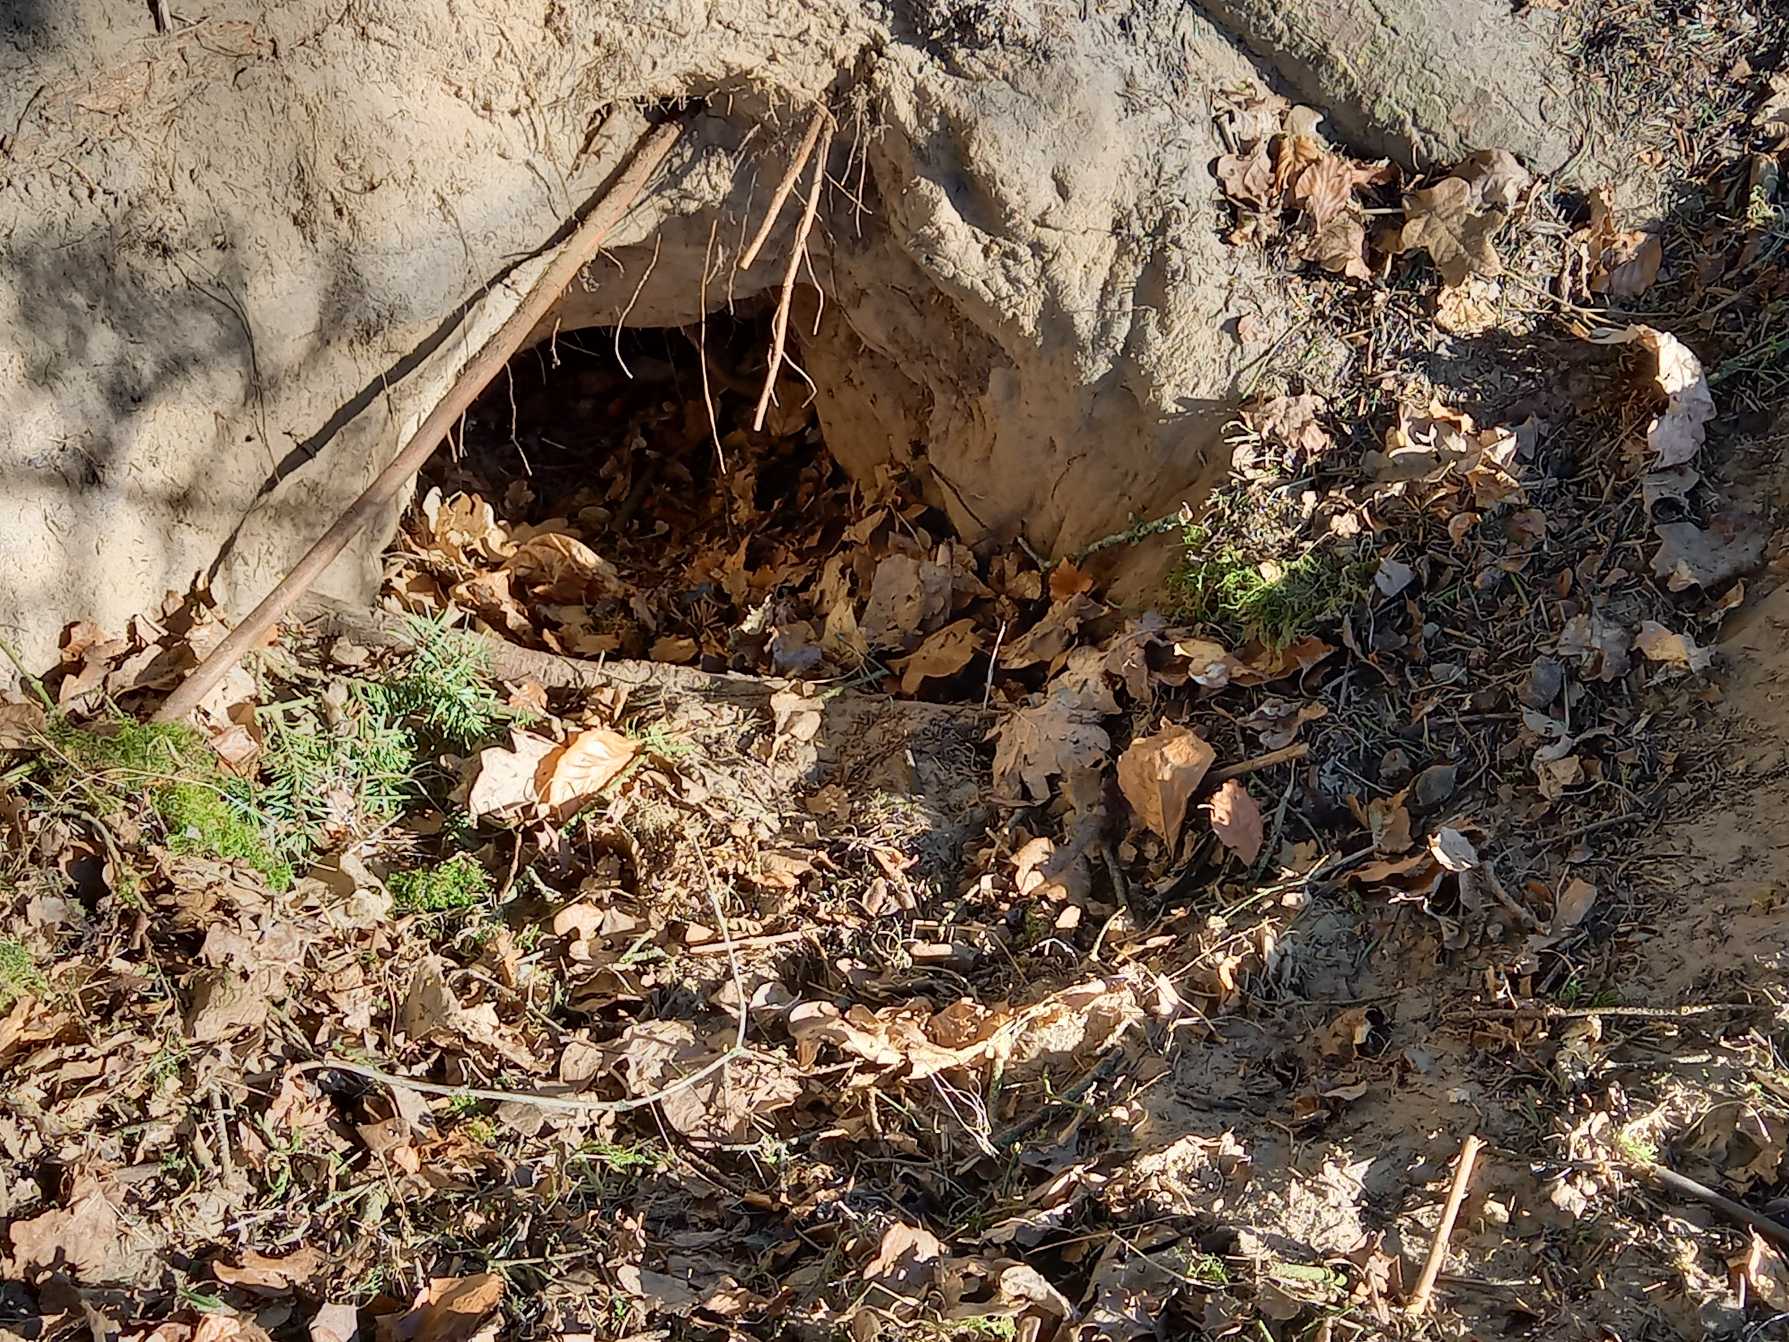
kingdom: Animalia
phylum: Chordata
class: Mammalia
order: Carnivora
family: Canidae
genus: Vulpes
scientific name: Vulpes vulpes
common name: Ræv
